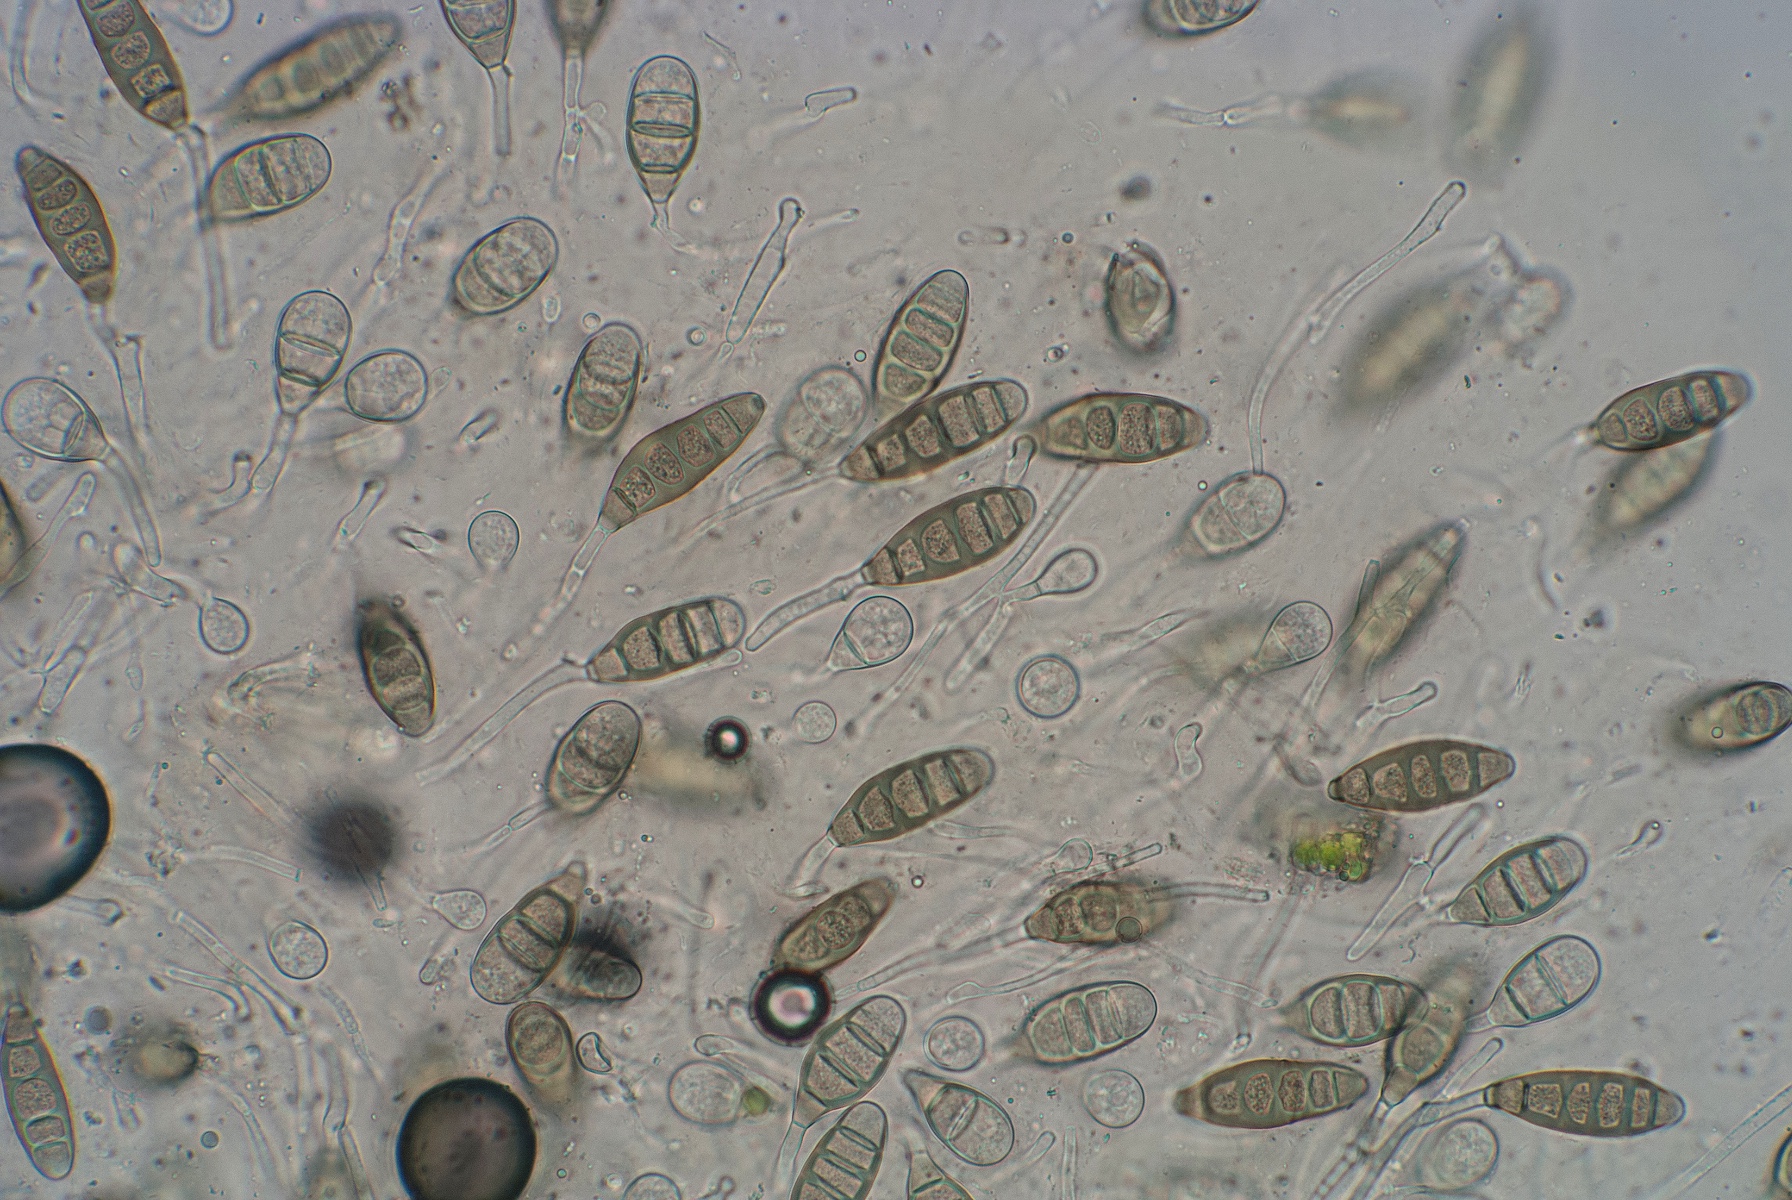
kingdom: Fungi
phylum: Ascomycota
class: Sordariomycetes
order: Diaporthales
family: Coryneaceae
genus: Coryneum
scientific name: Coryneum lanciforme
